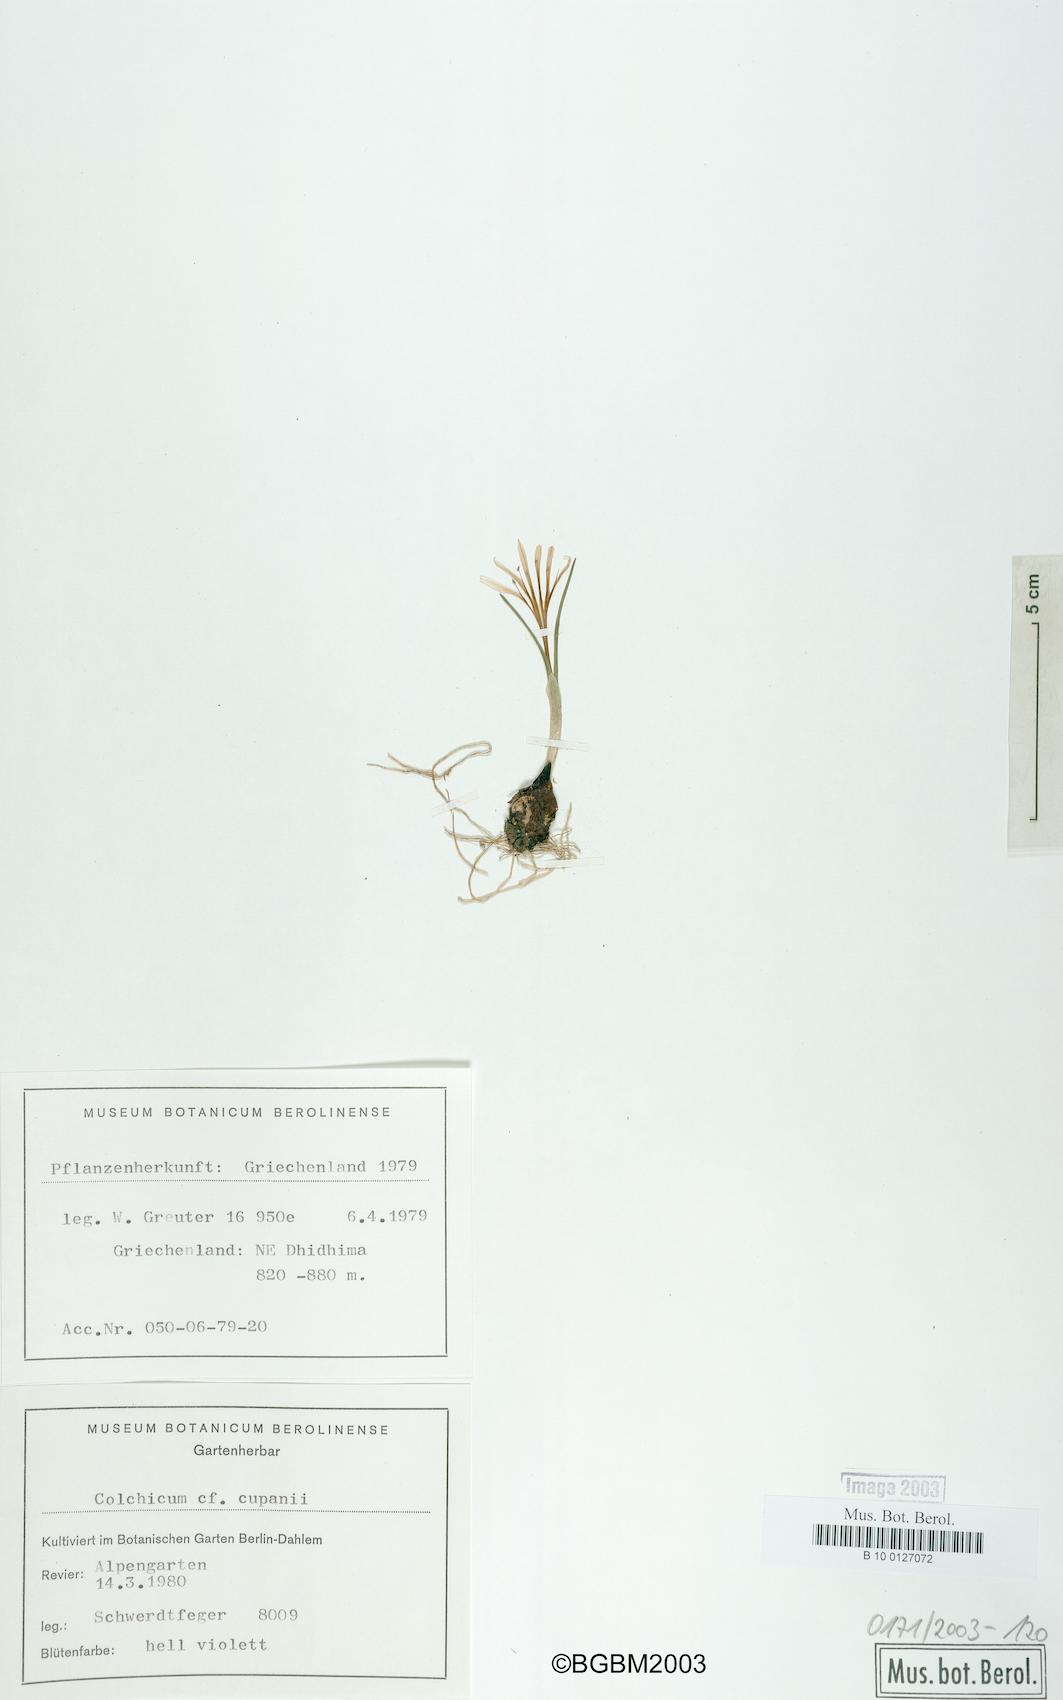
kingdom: Plantae
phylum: Tracheophyta
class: Liliopsida
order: Liliales
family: Colchicaceae
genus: Colchicum
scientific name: Colchicum cupanii
